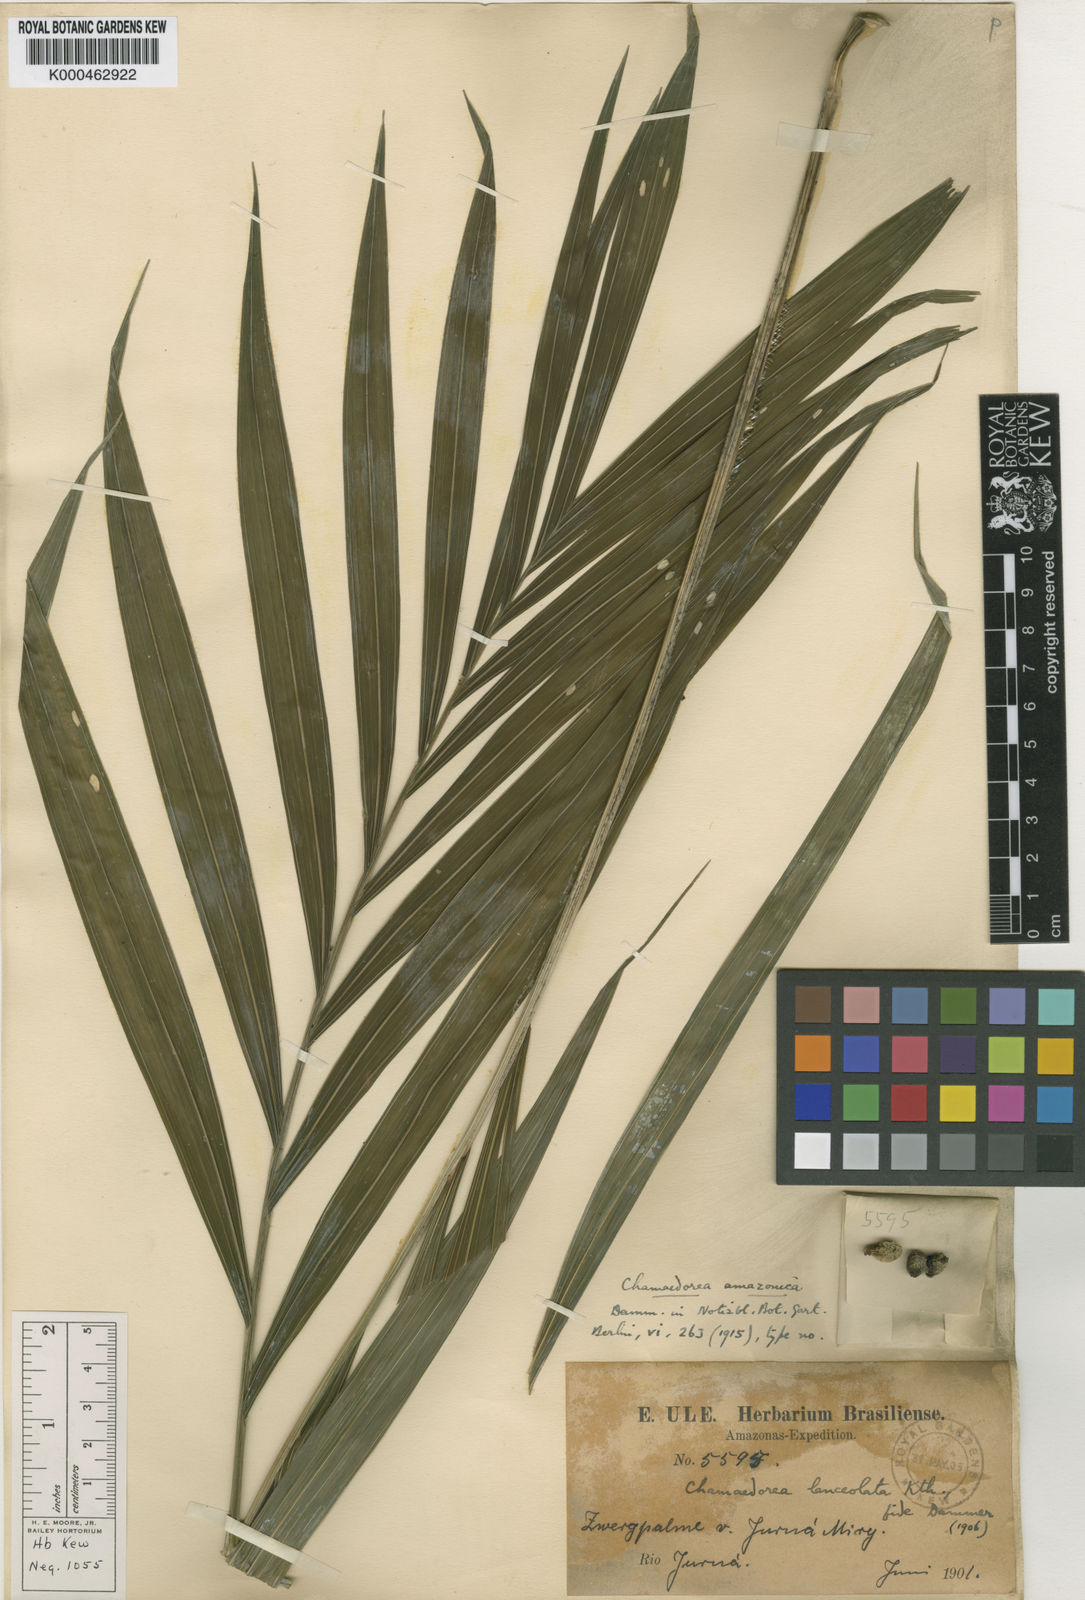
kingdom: Plantae
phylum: Tracheophyta
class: Liliopsida
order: Arecales
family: Arecaceae
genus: Chamaedorea
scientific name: Chamaedorea pauciflora
